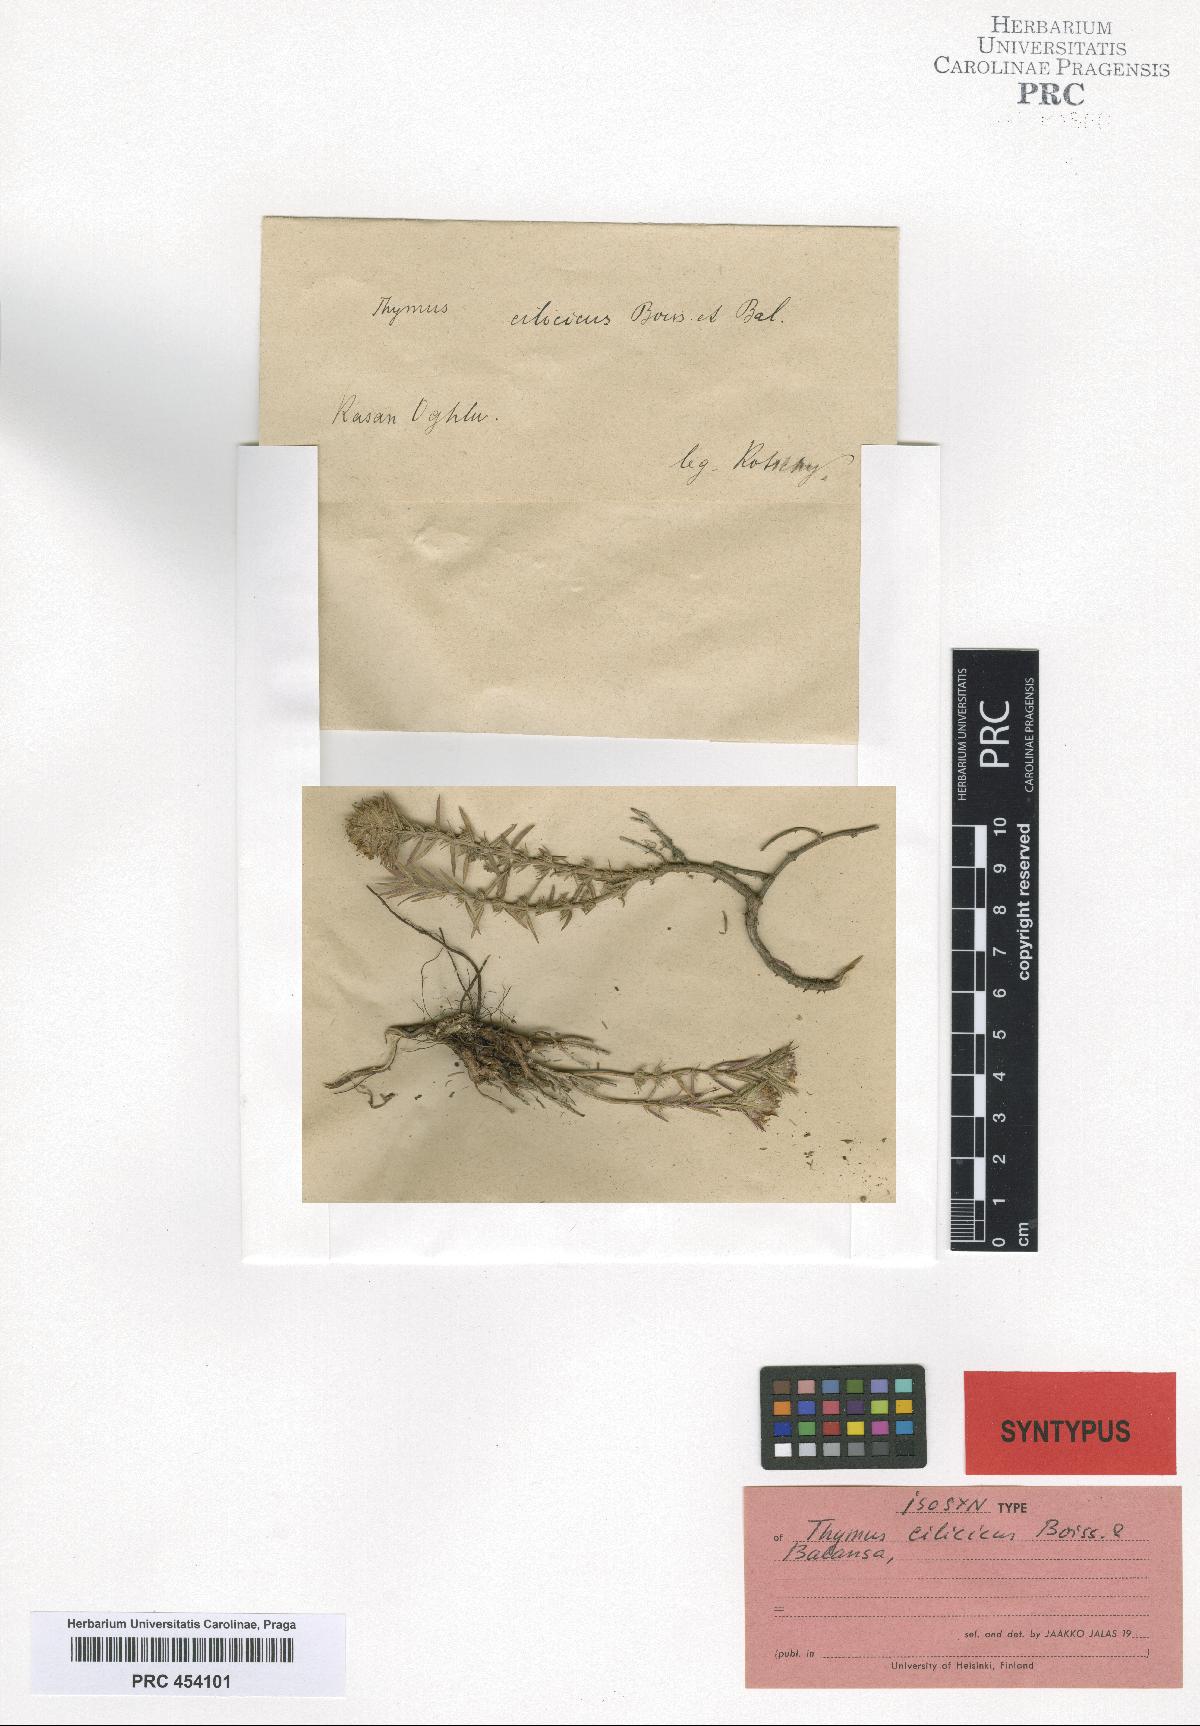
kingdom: Plantae
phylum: Tracheophyta
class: Magnoliopsida
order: Lamiales
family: Lamiaceae
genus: Thymus
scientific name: Thymus cilicicus
